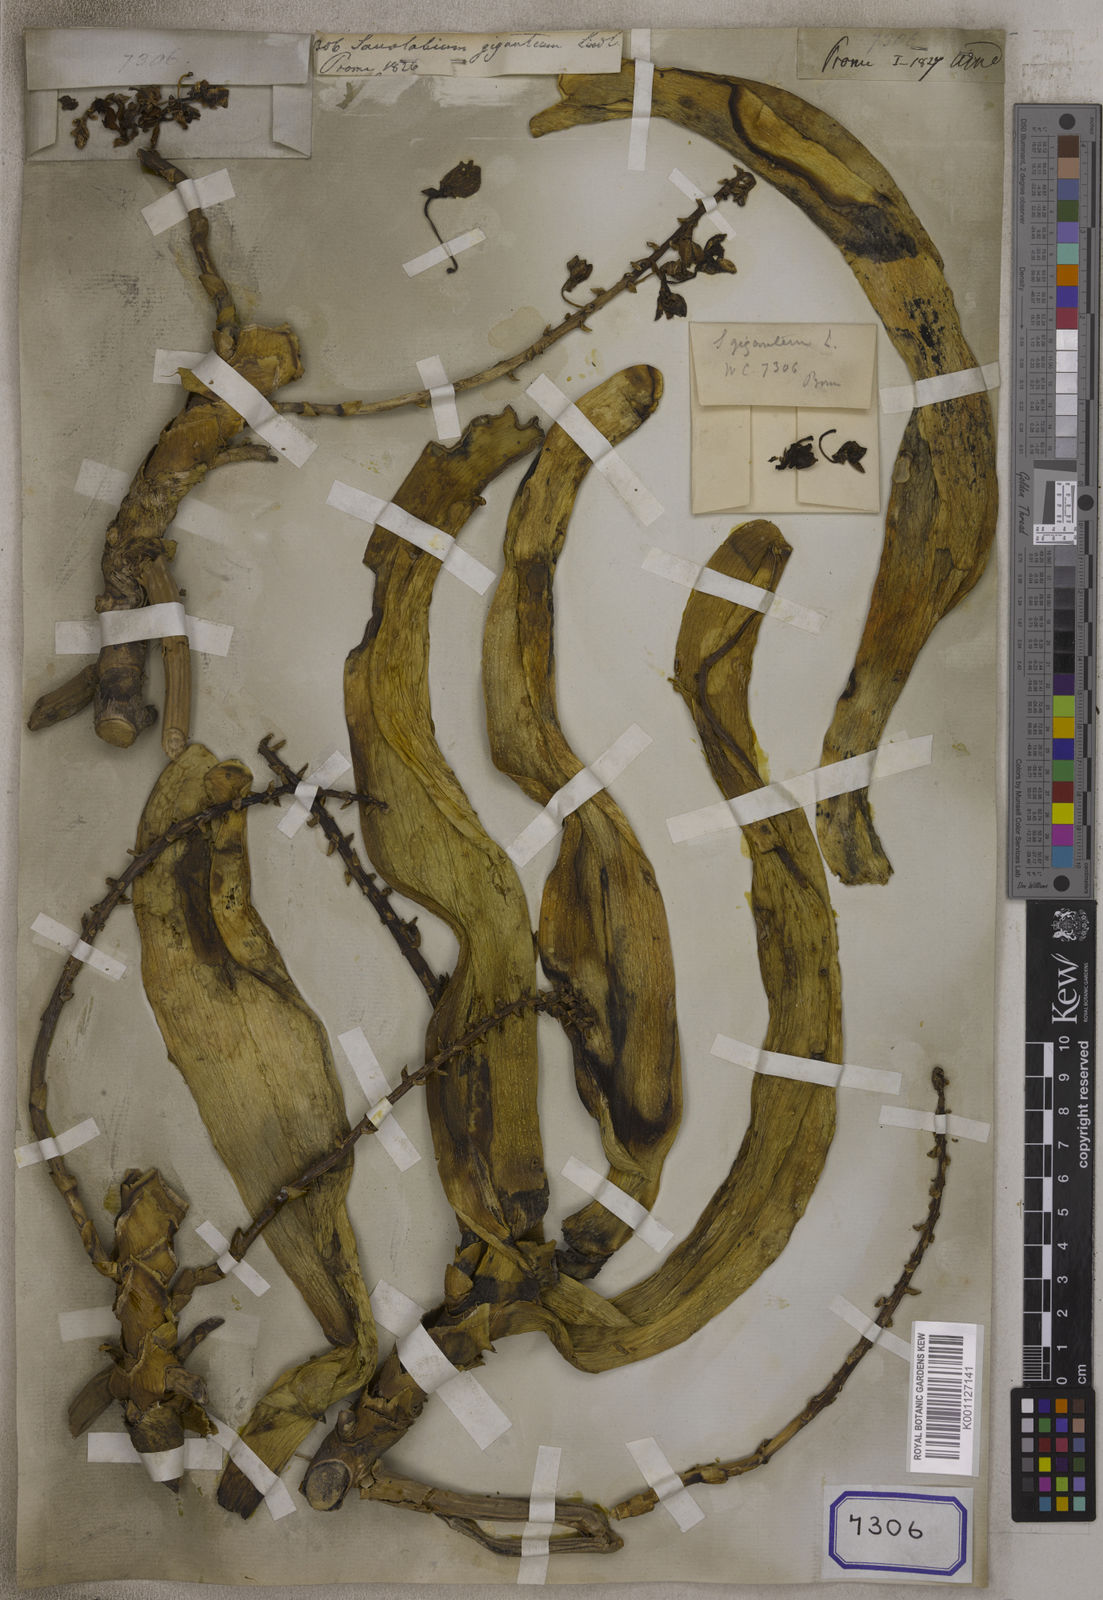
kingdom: Plantae
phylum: Tracheophyta
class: Liliopsida
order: Asparagales
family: Orchidaceae
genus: Rhynchostylis
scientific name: Rhynchostylis gigantea
